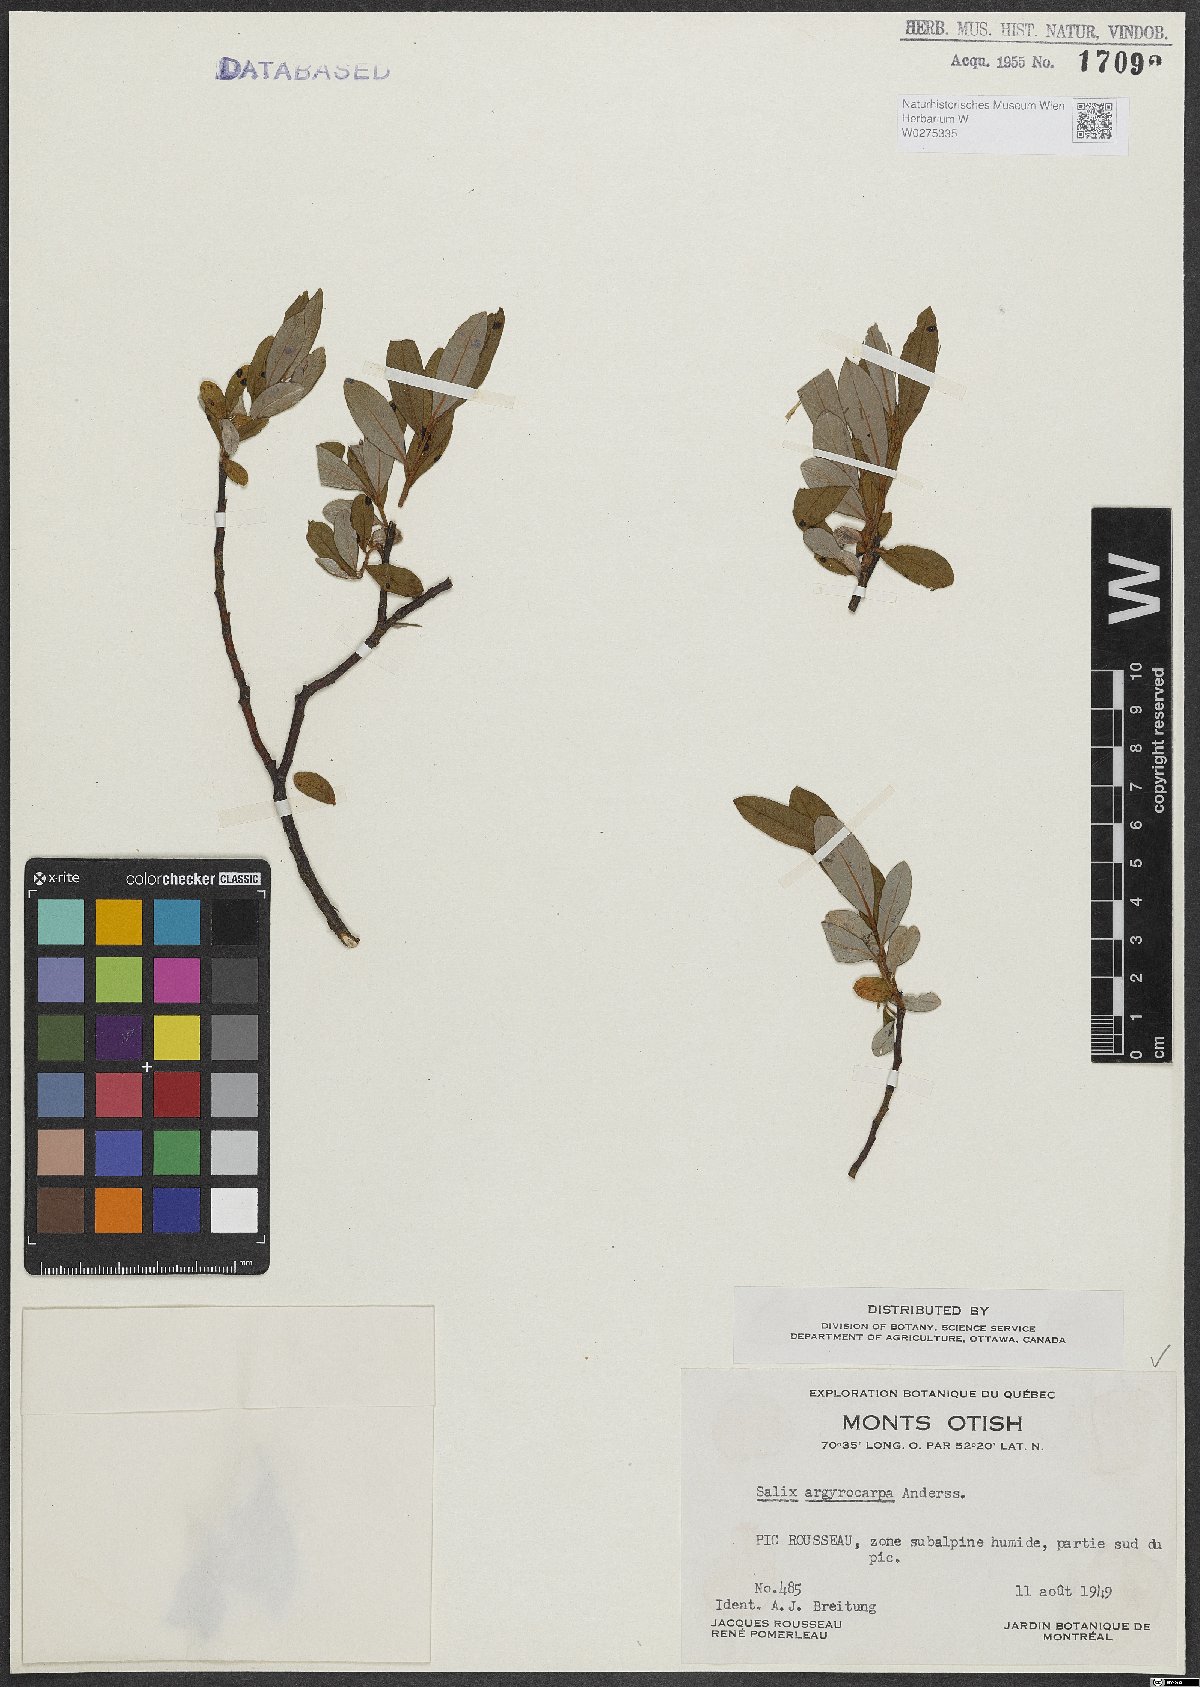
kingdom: Plantae
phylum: Tracheophyta
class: Magnoliopsida
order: Malpighiales
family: Salicaceae
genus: Salix
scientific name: Salix argyrocarpa
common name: Labrador willow
